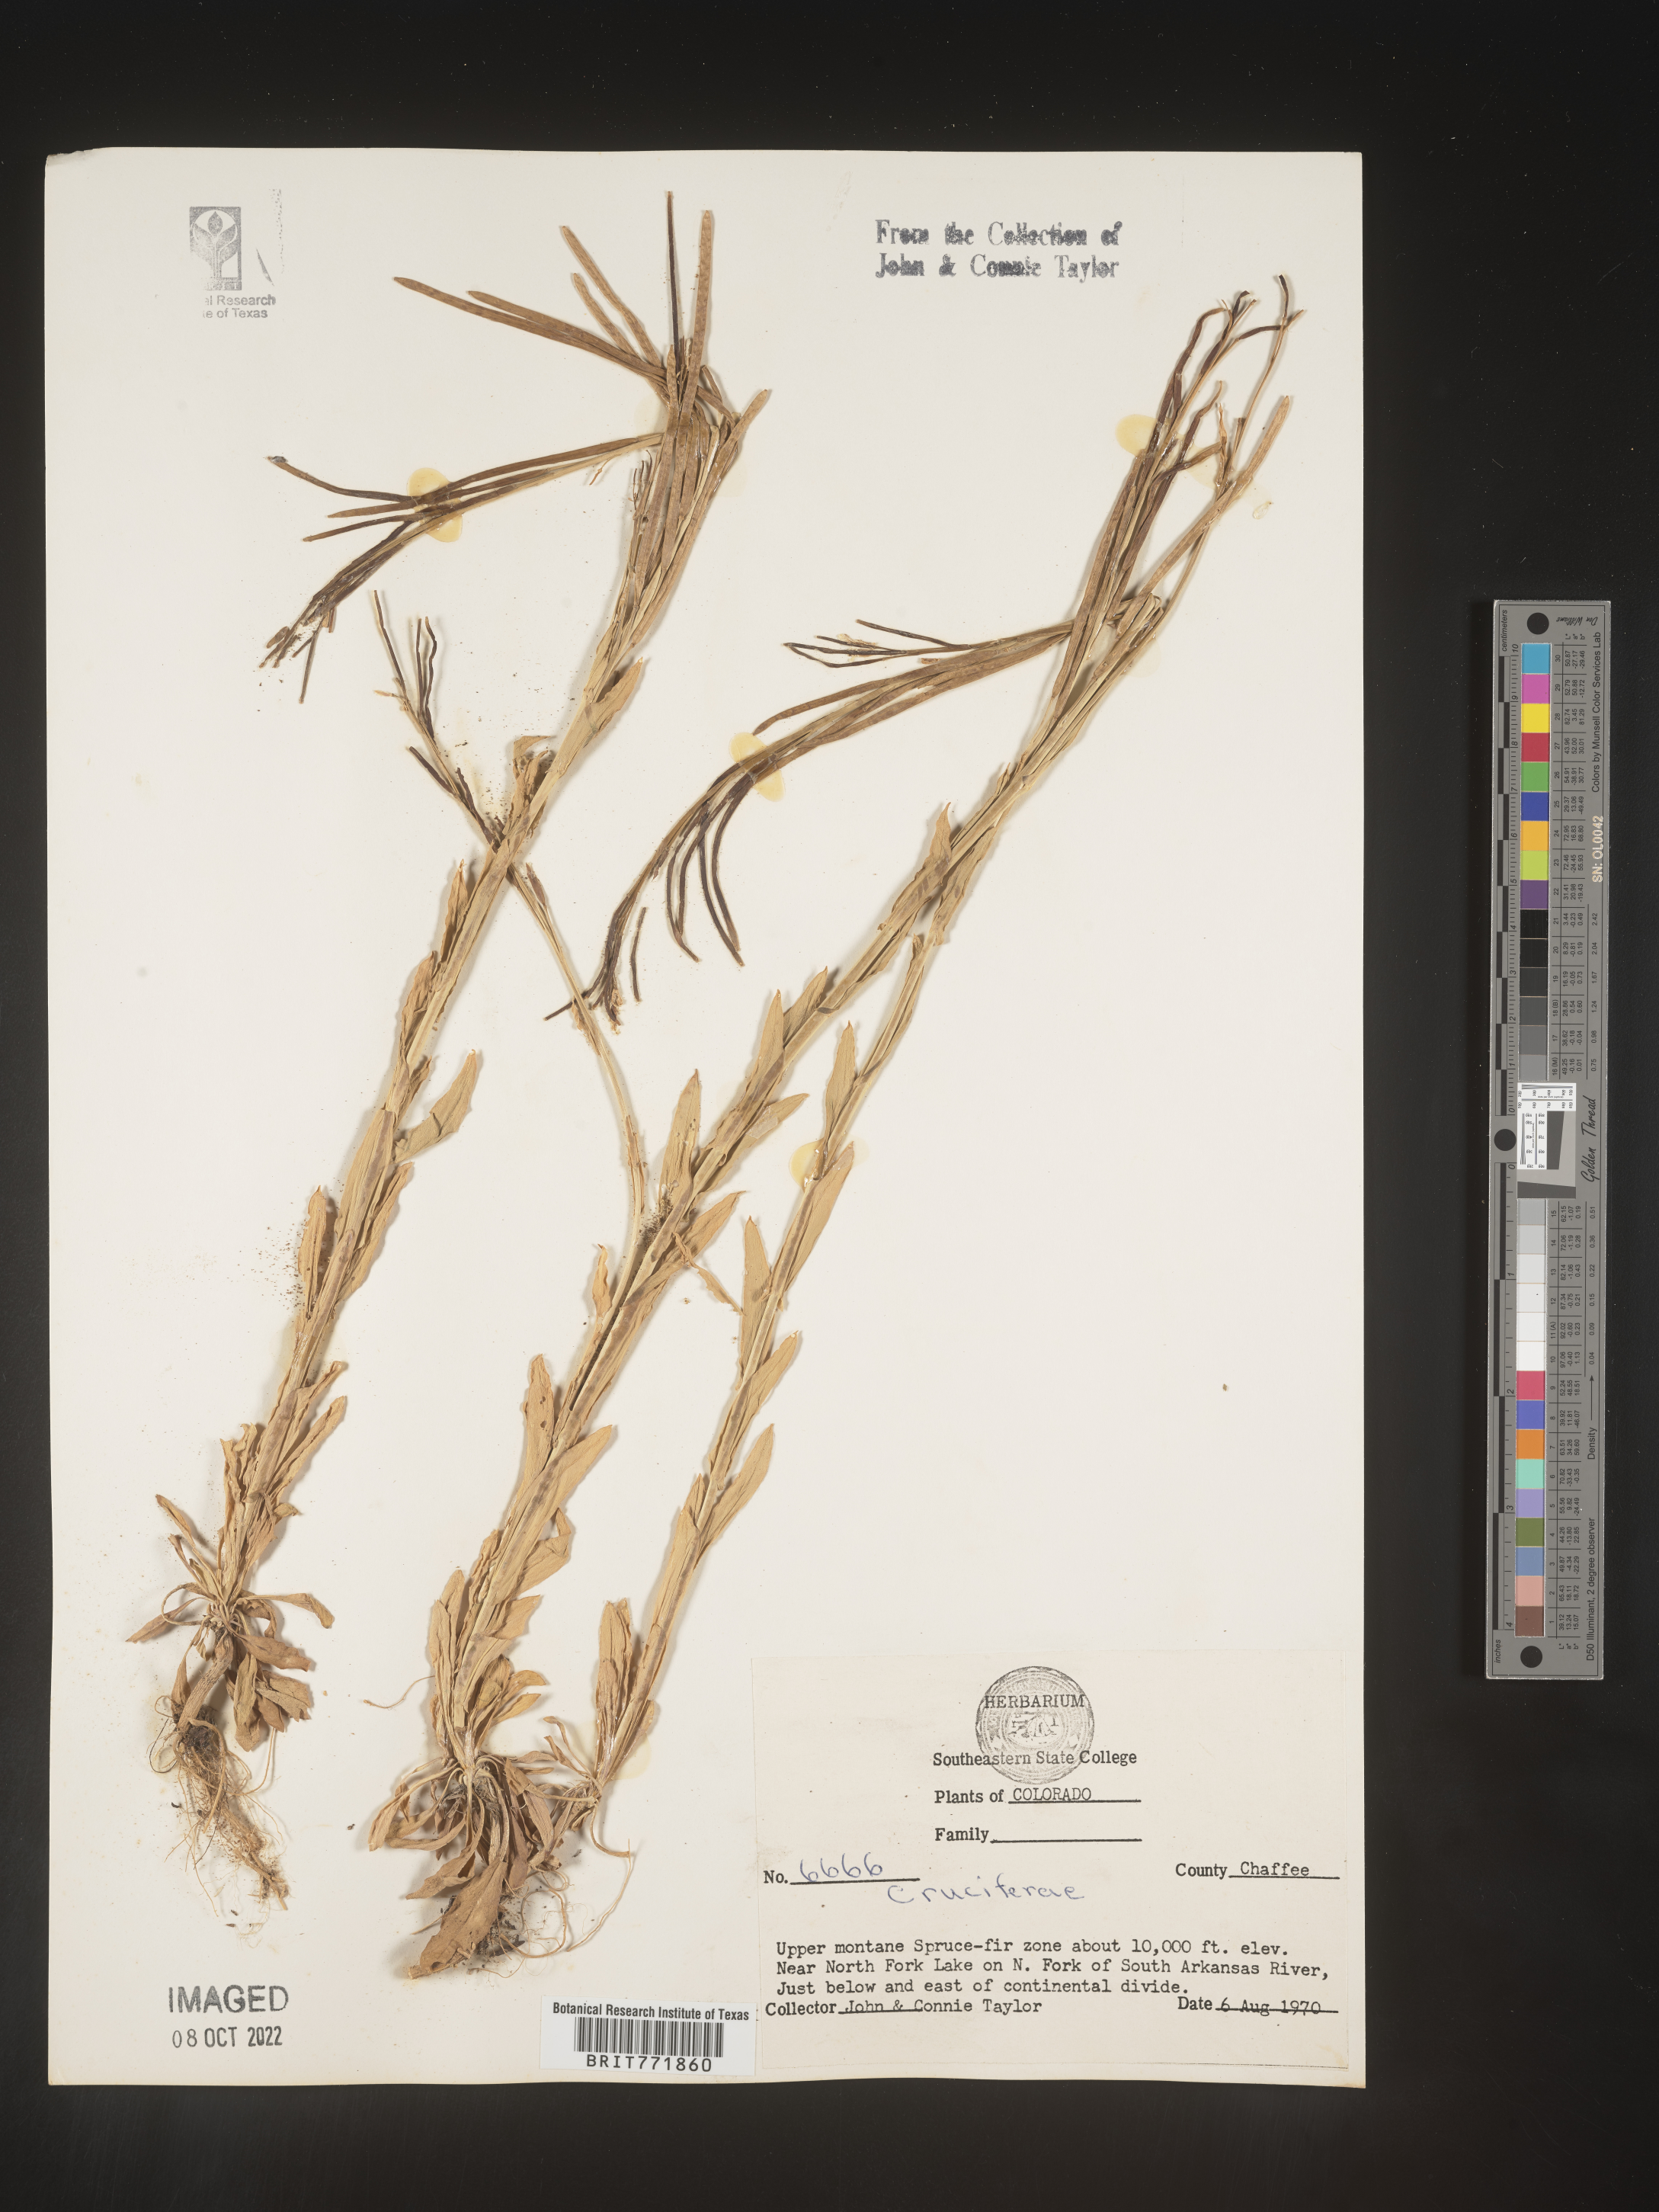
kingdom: Plantae
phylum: Tracheophyta
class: Magnoliopsida
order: Brassicales
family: Brassicaceae
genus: Arabis
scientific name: Arabis
